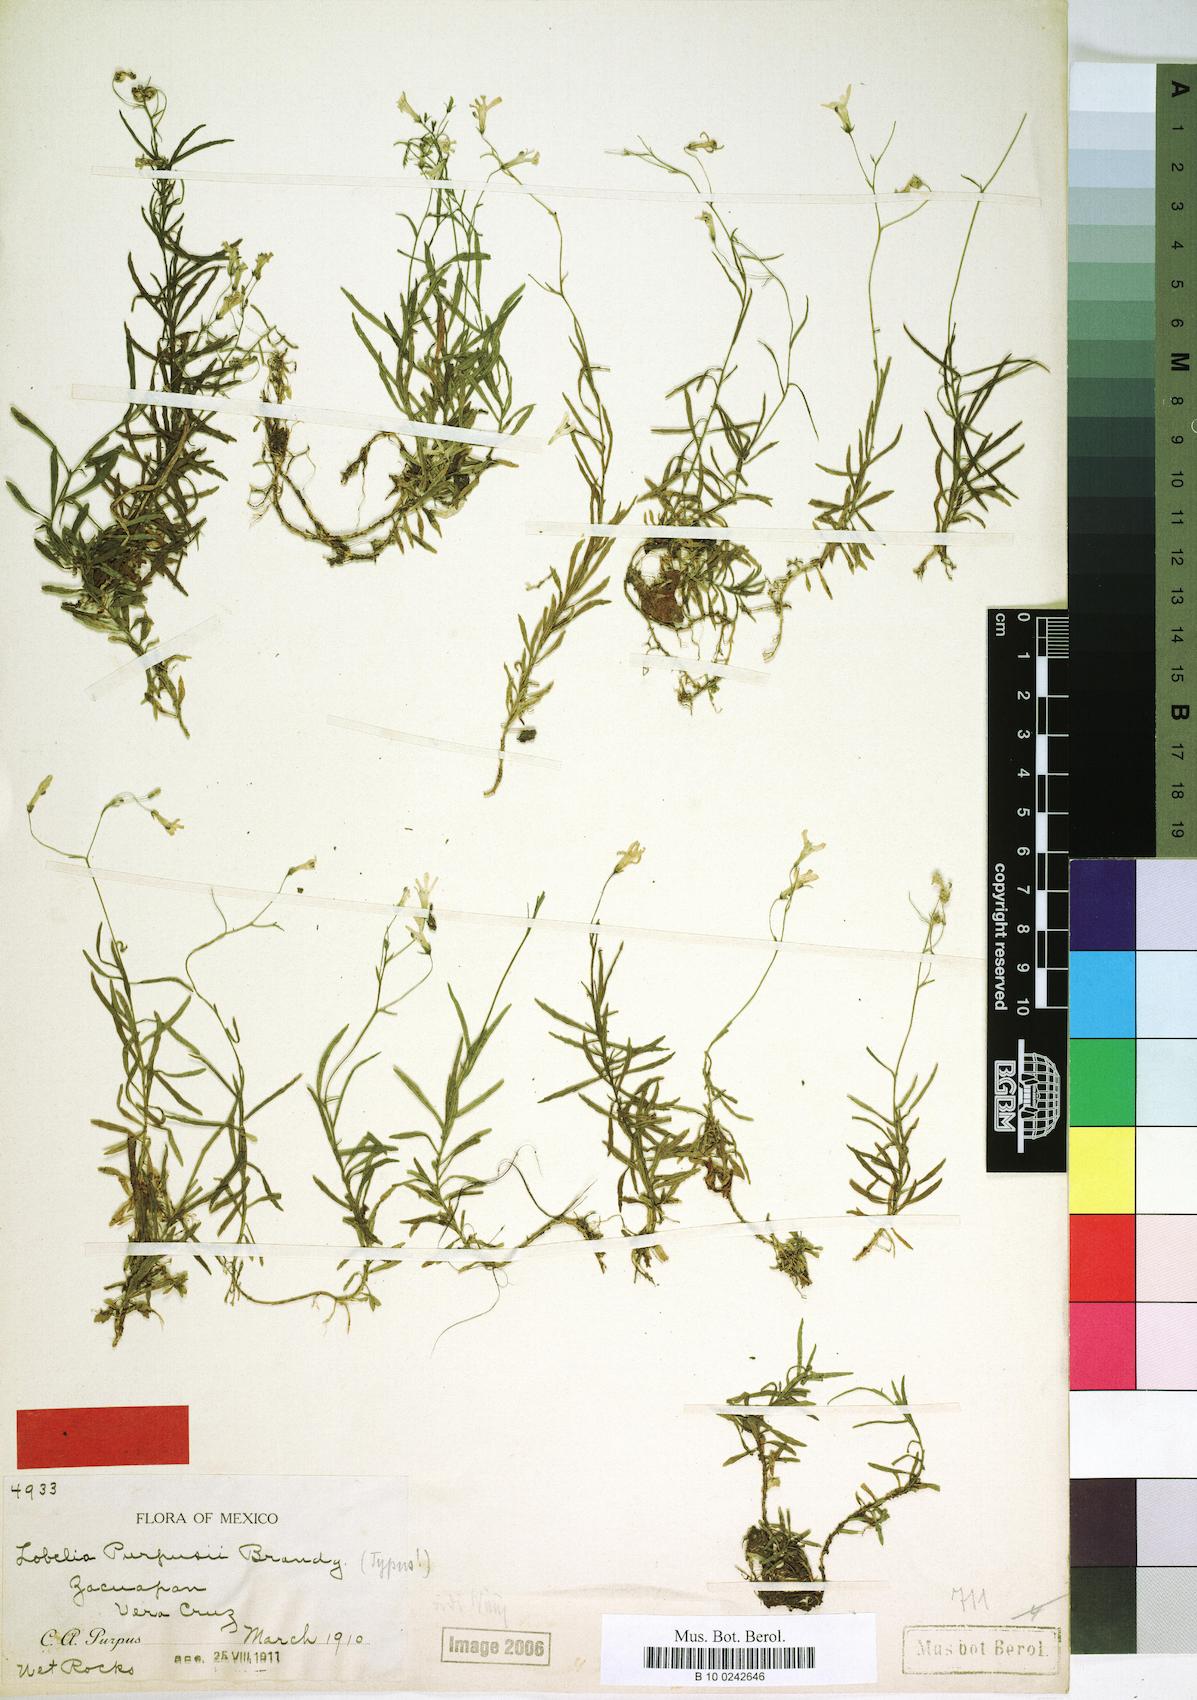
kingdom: Plantae
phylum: Tracheophyta
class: Magnoliopsida
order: Asterales
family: Campanulaceae
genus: Lobelia
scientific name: Lobelia purpusii
